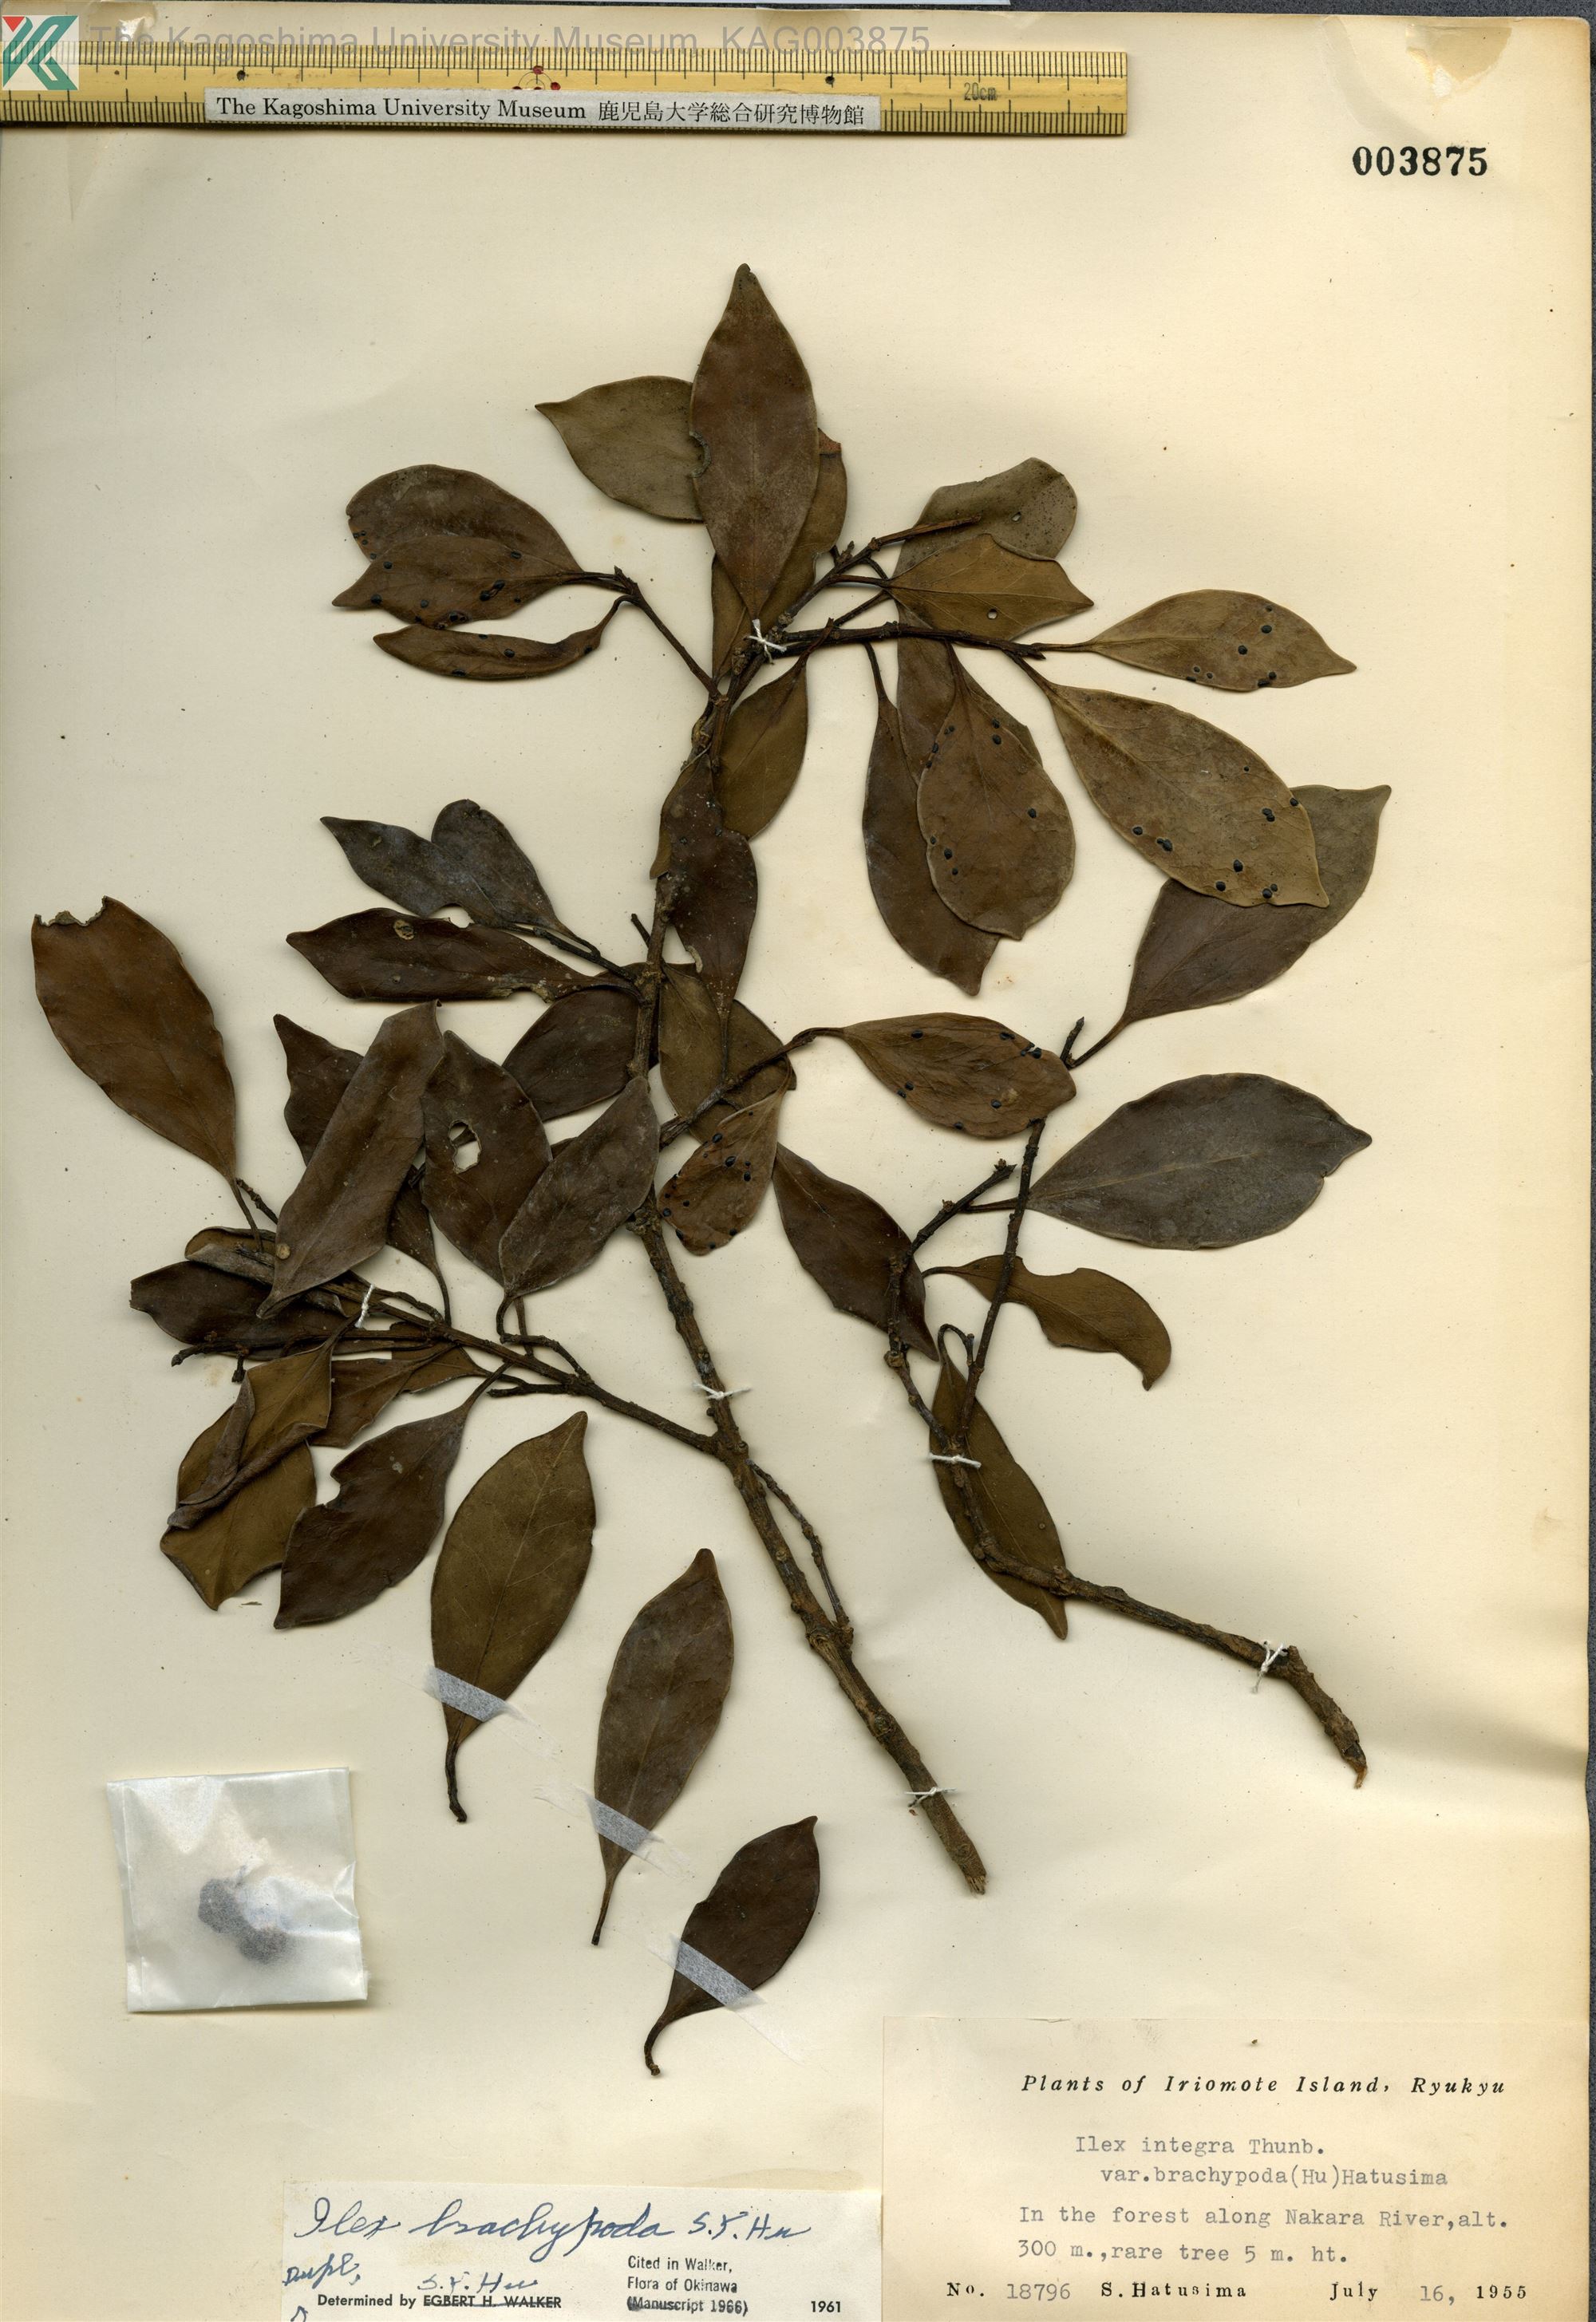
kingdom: Plantae
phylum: Tracheophyta
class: Magnoliopsida
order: Aquifoliales
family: Aquifoliaceae
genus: Ilex
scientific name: Ilex integra
